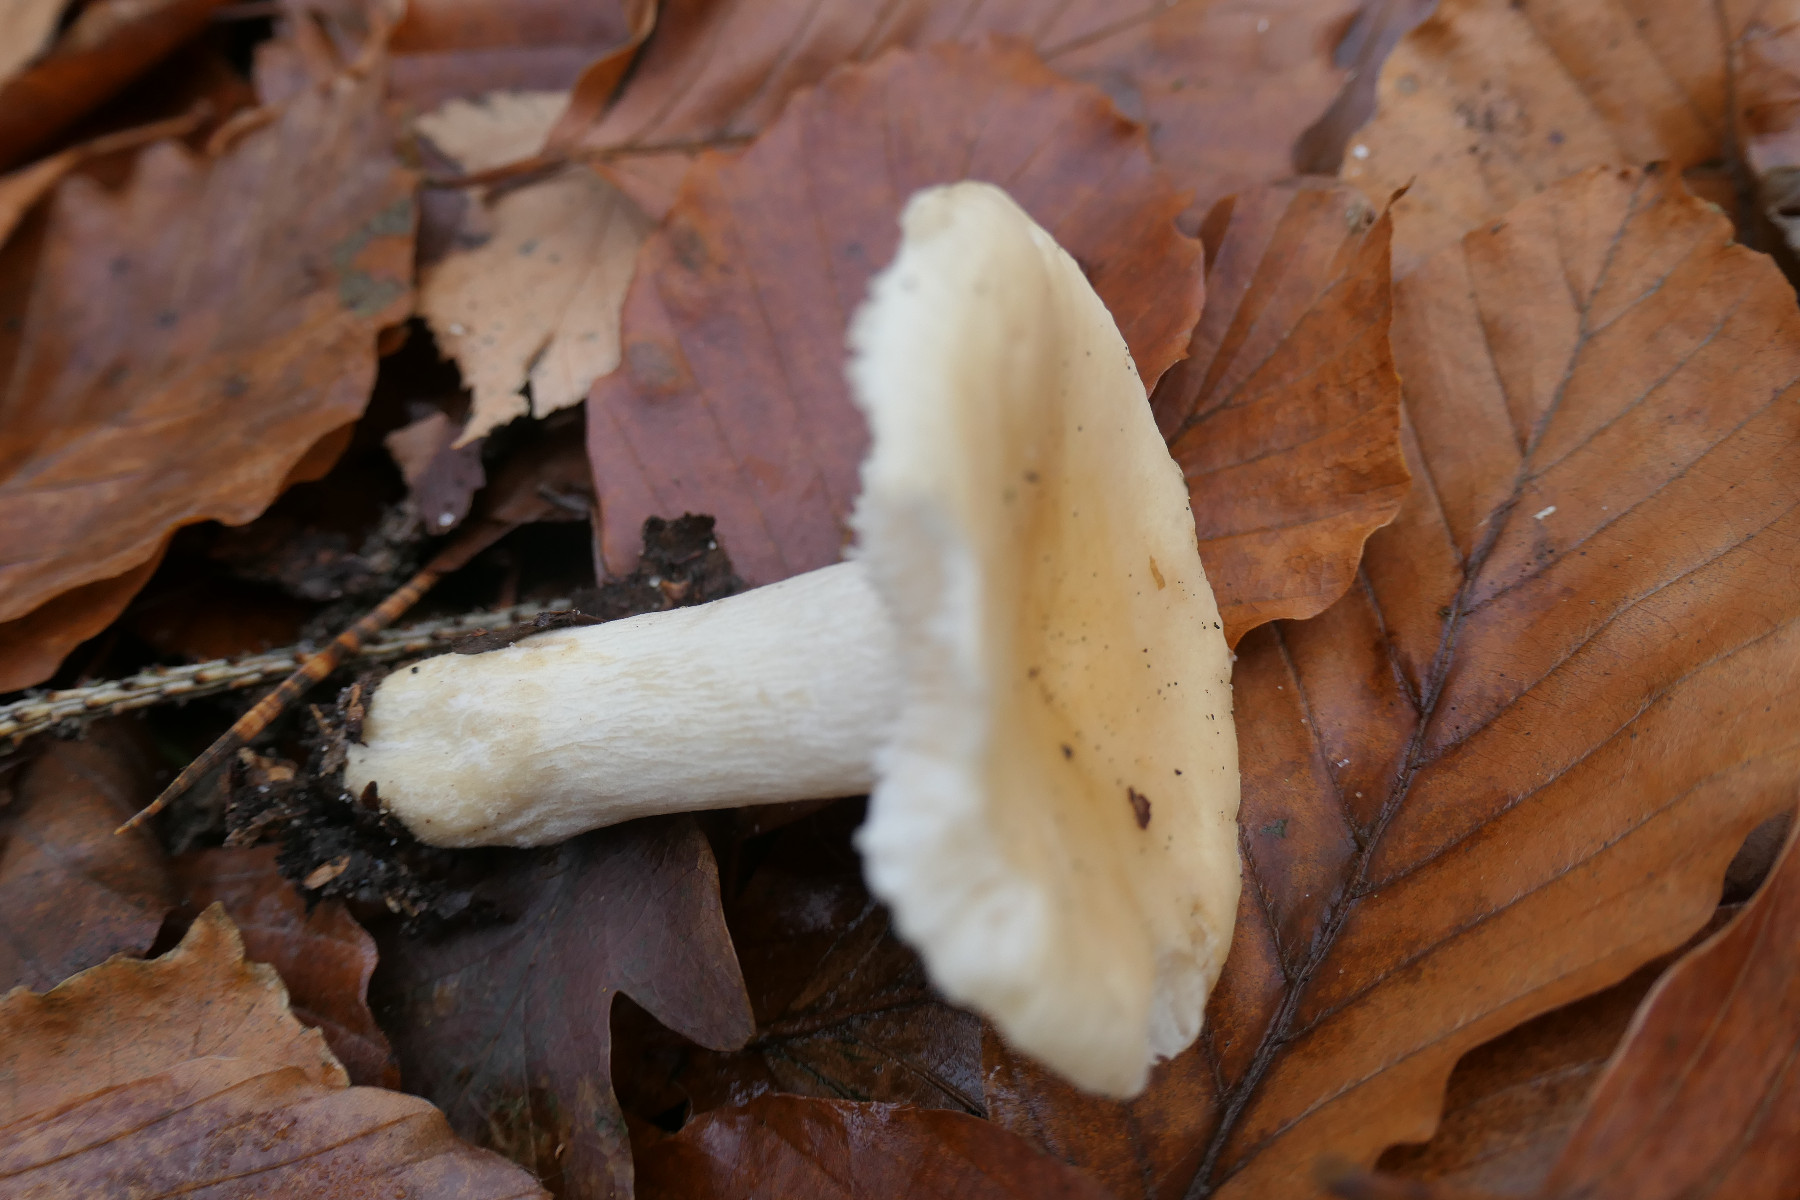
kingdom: Fungi
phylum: Basidiomycota
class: Agaricomycetes
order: Russulales
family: Russulaceae
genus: Russula
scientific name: Russula fellea
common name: galde-skørhat
